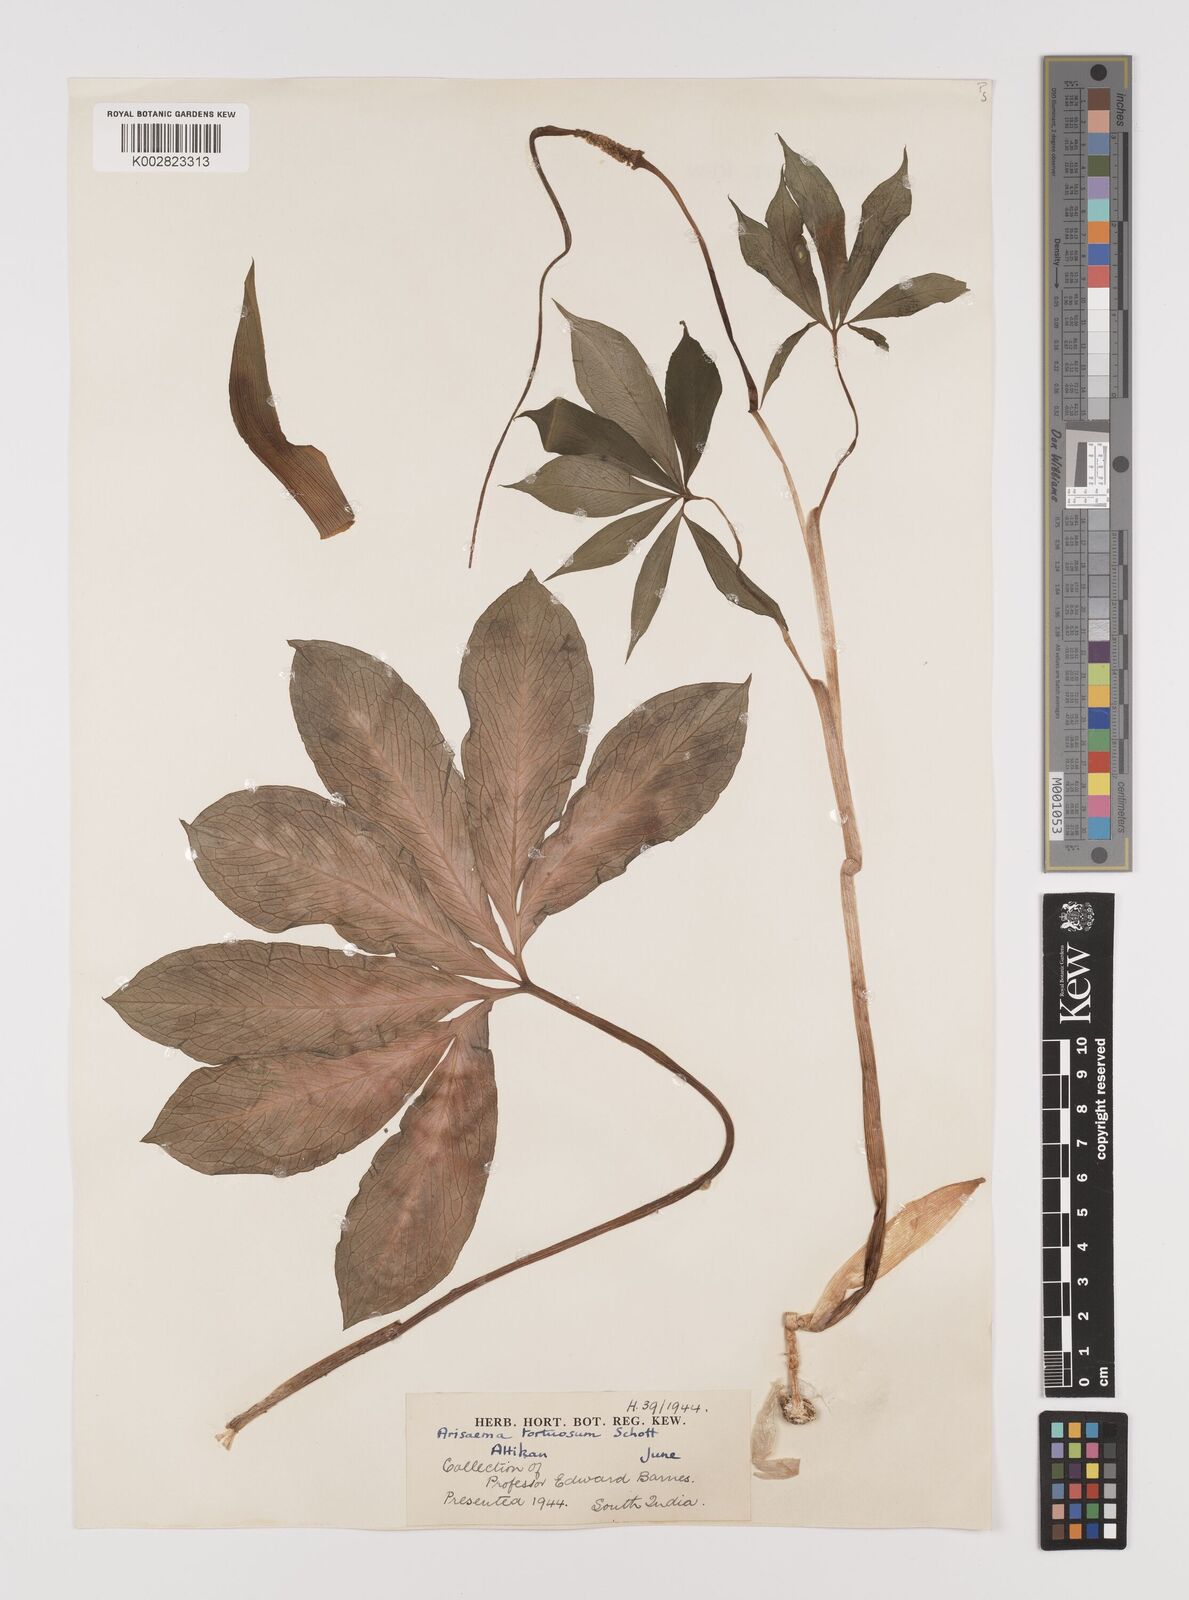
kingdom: Plantae
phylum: Tracheophyta
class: Liliopsida
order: Alismatales
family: Araceae
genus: Arisaema
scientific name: Arisaema tortuosum
